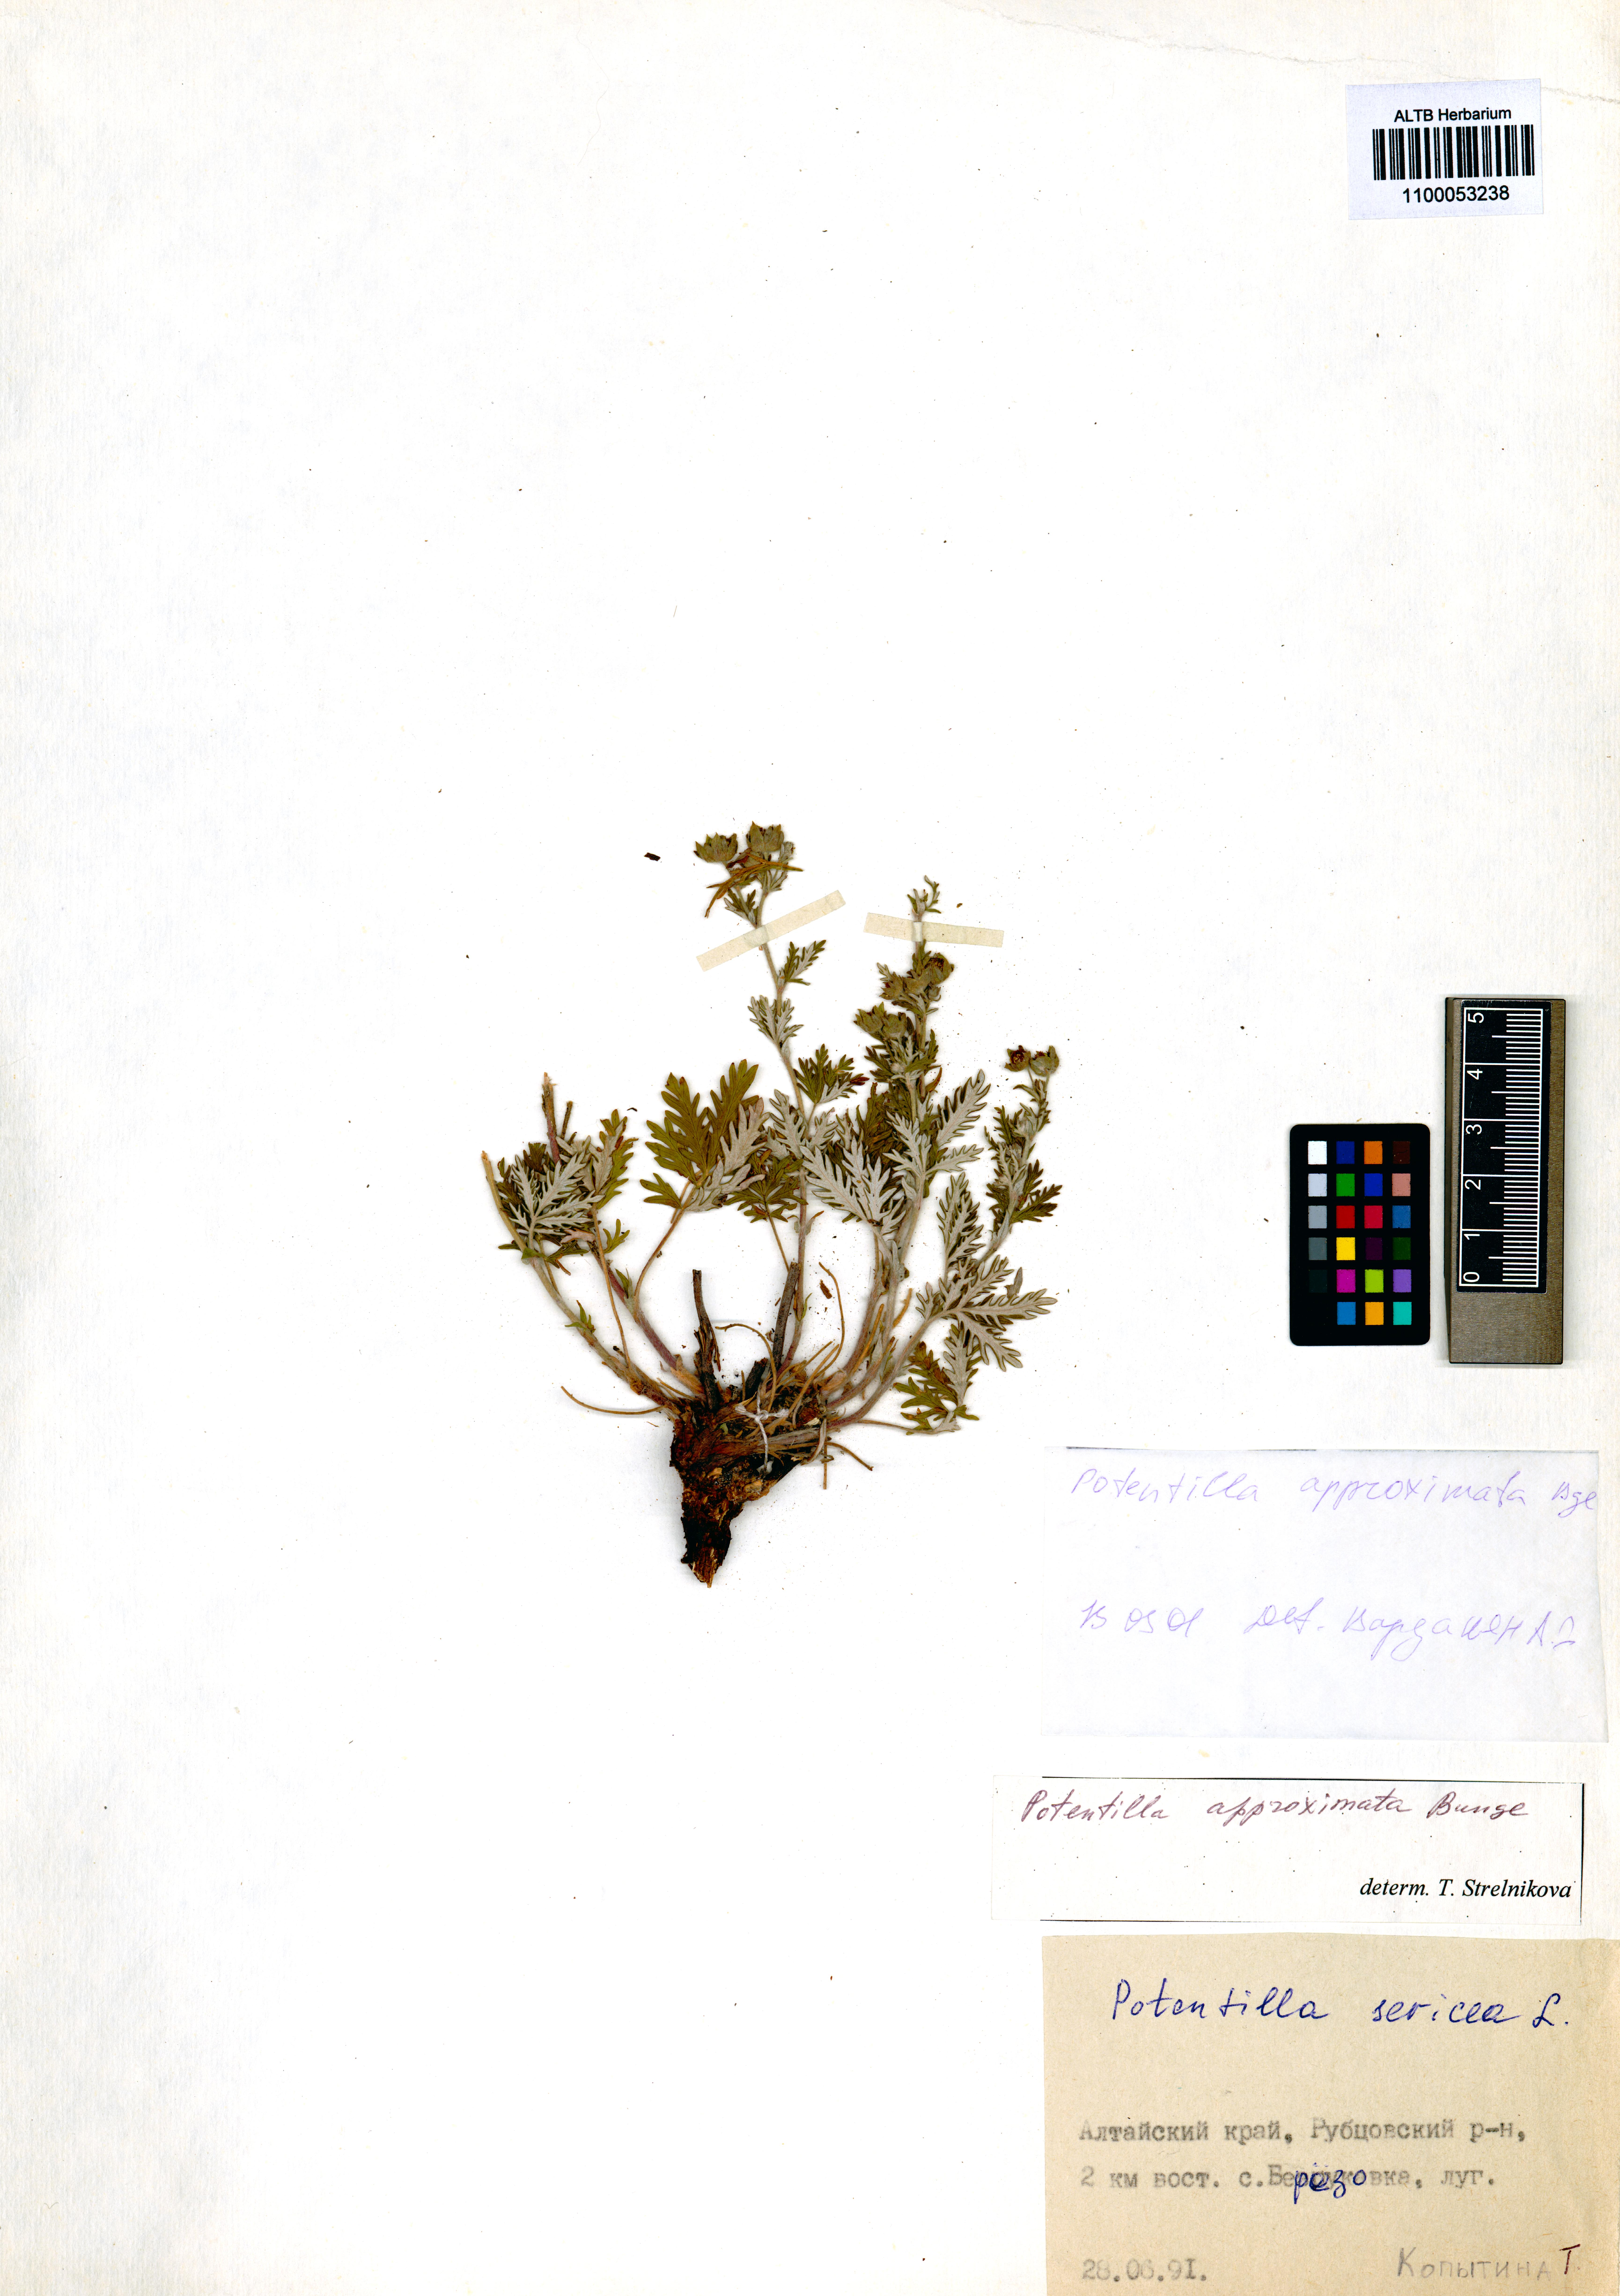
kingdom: Plantae
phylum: Tracheophyta
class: Magnoliopsida
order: Rosales
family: Rosaceae
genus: Potentilla
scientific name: Potentilla conferta
